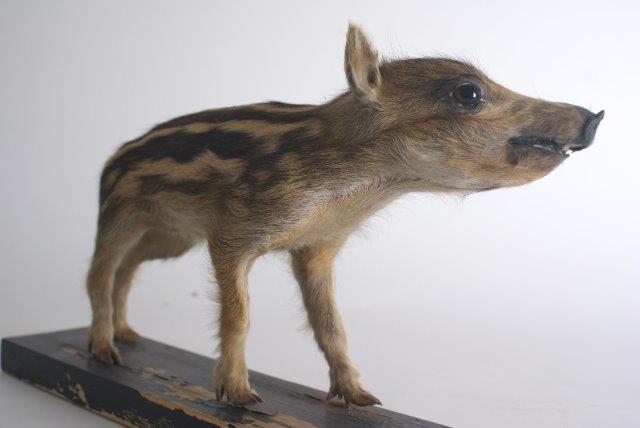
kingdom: Animalia
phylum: Chordata
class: Mammalia
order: Artiodactyla
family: Suidae
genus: Sus
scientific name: Sus scrofa
